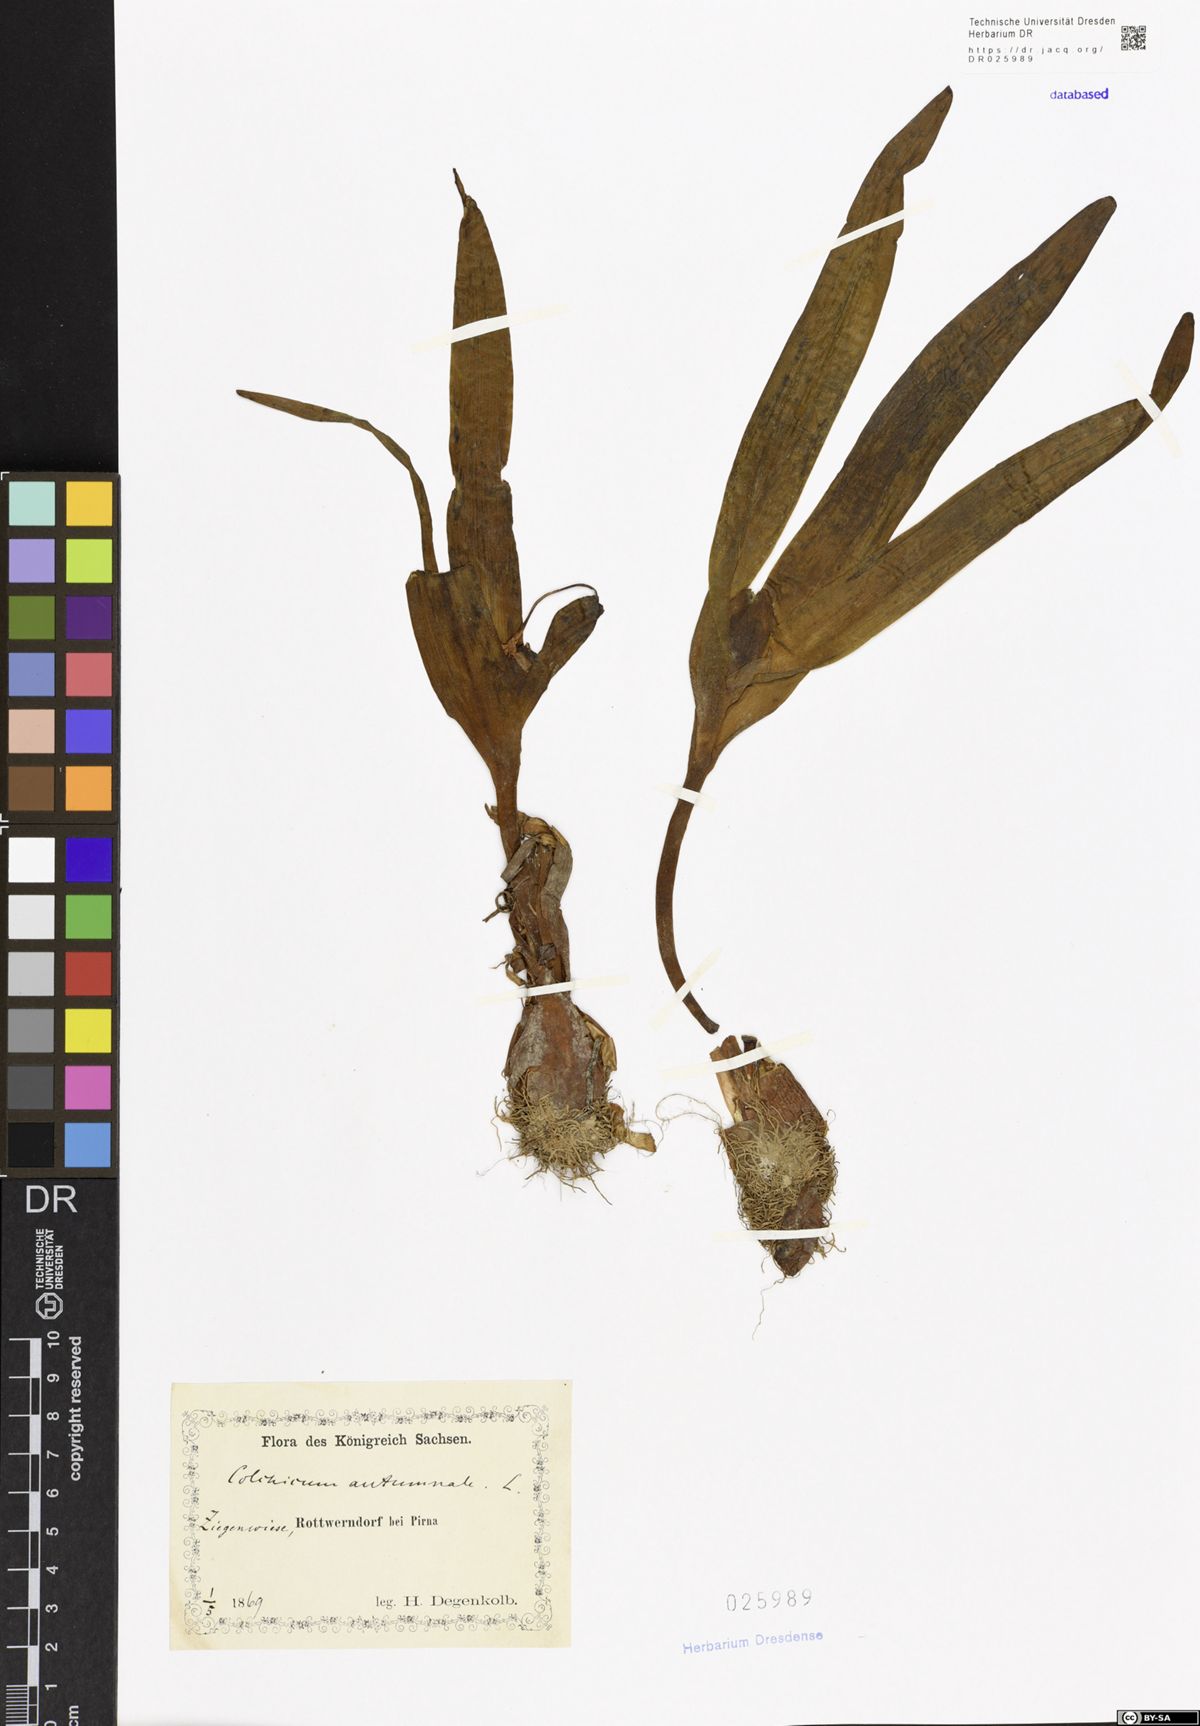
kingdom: Plantae
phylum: Tracheophyta
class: Liliopsida
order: Liliales
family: Colchicaceae
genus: Colchicum
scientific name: Colchicum autumnale
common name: Autumn crocus
